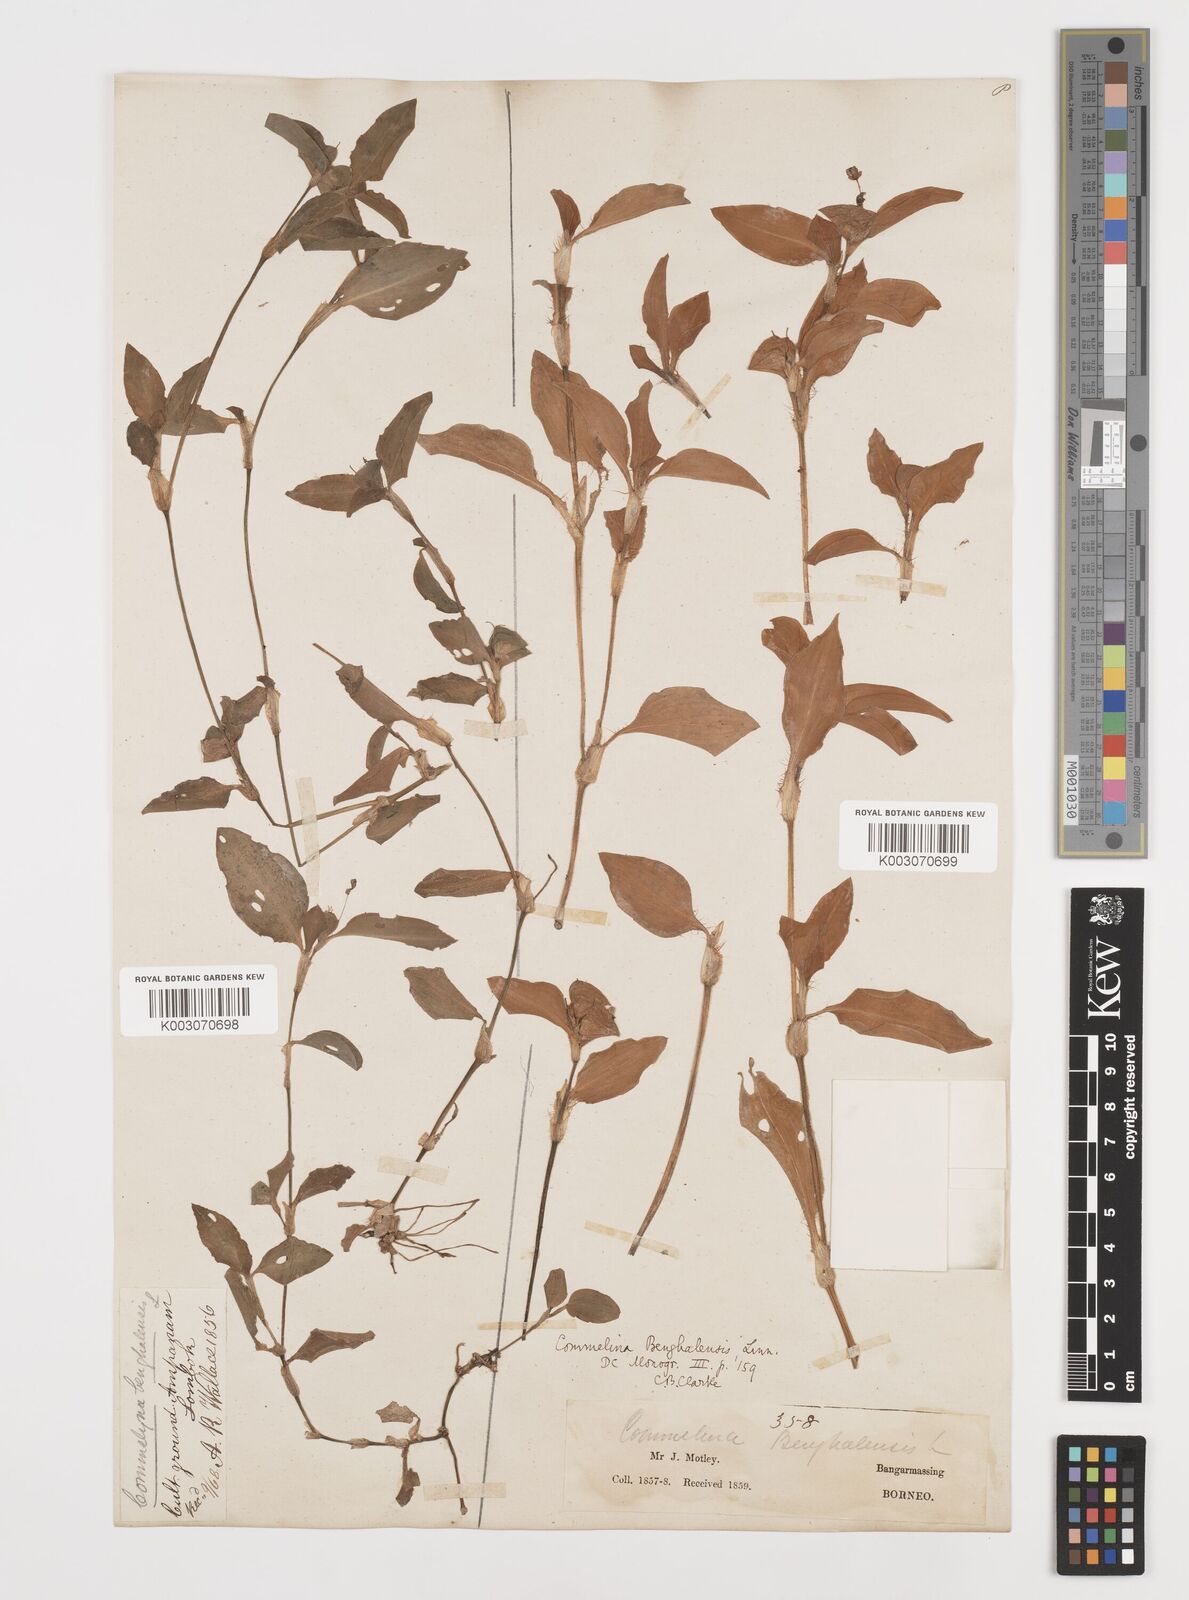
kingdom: Plantae
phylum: Tracheophyta
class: Liliopsida
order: Commelinales
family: Commelinaceae
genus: Commelina
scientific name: Commelina benghalensis
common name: Jio
